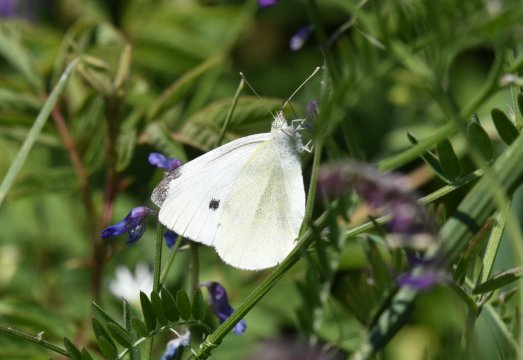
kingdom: Animalia
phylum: Arthropoda
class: Insecta
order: Lepidoptera
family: Pieridae
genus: Pieris
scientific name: Pieris rapae
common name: Cabbage White
